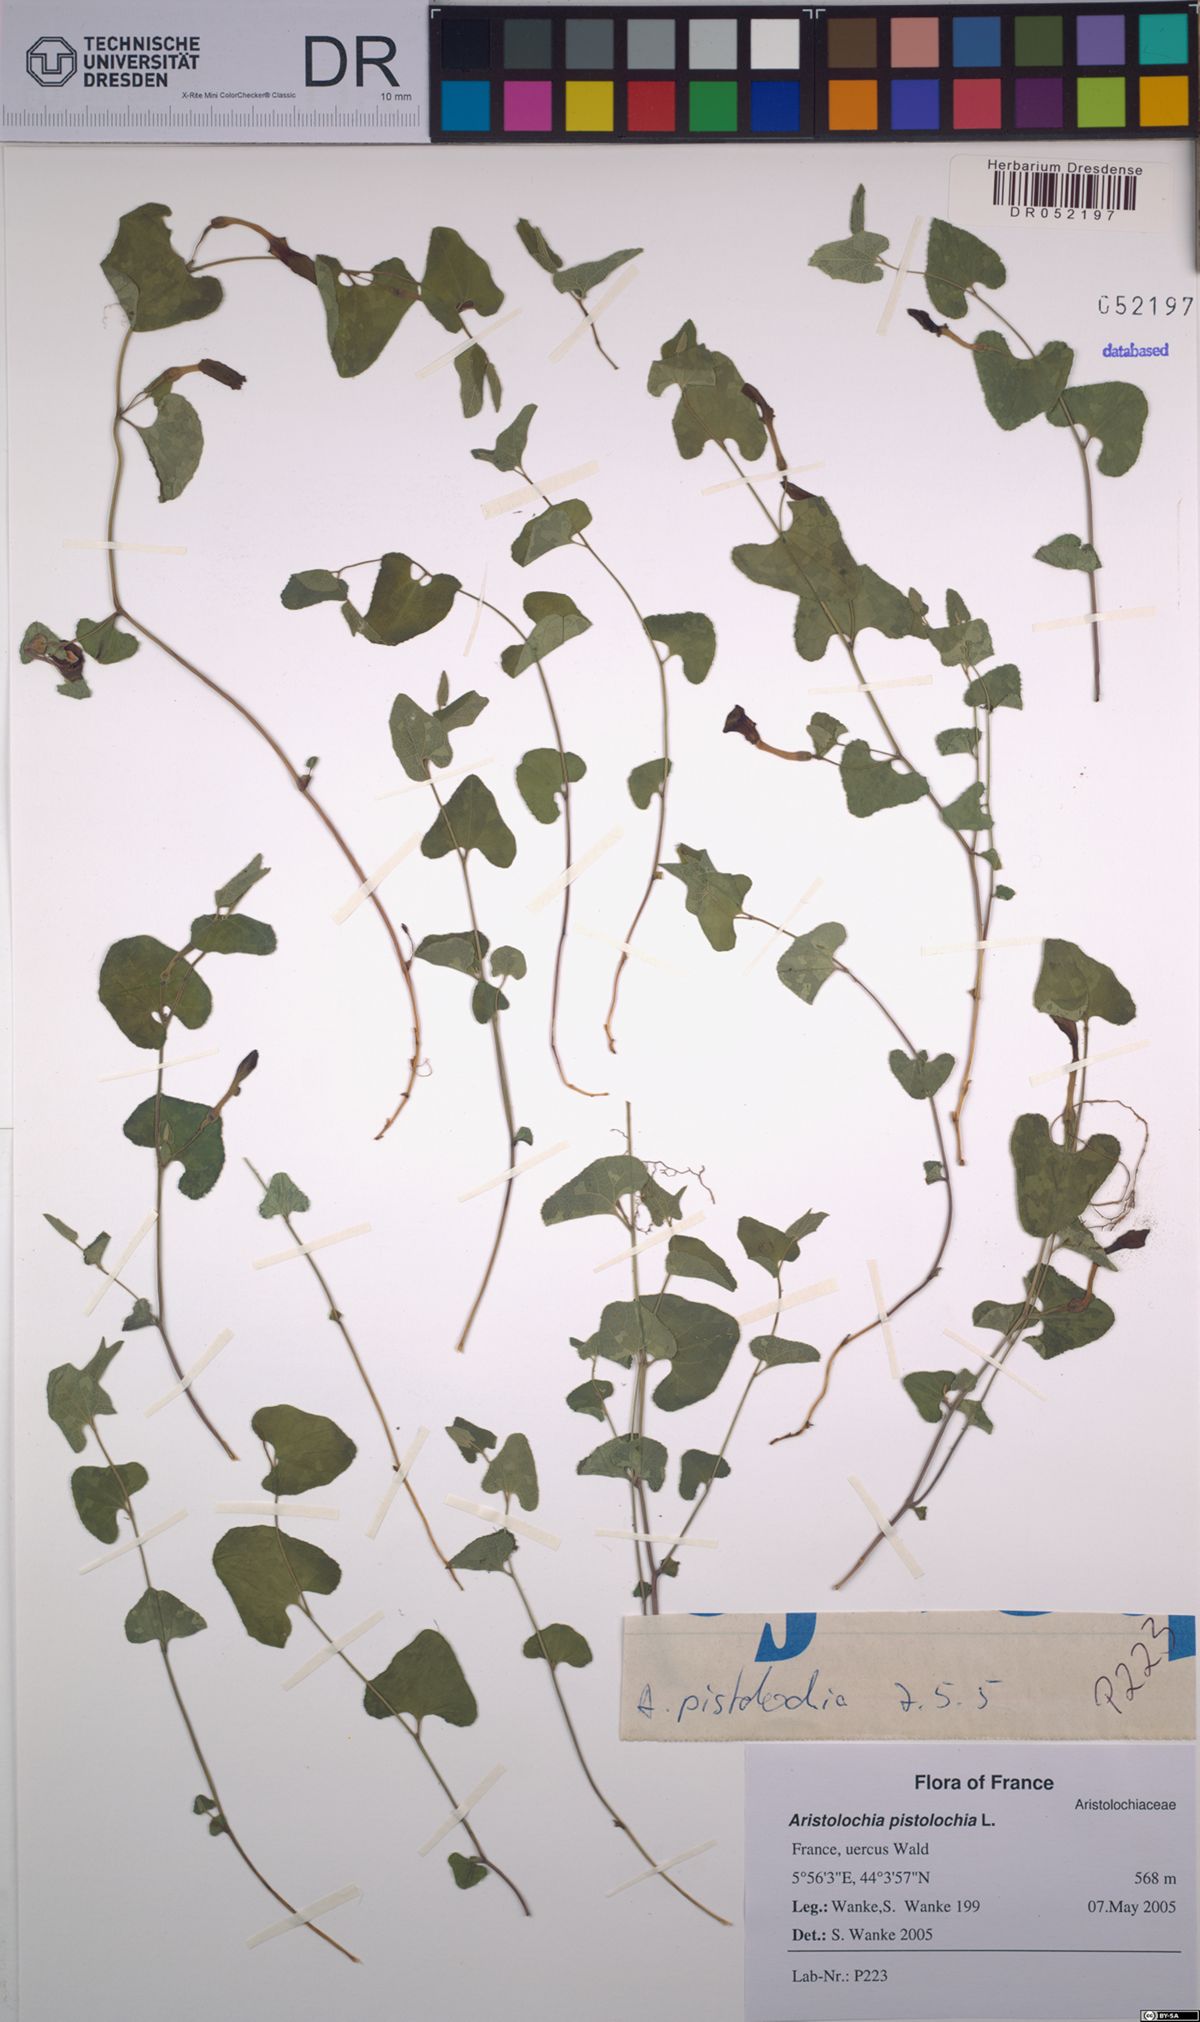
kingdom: Plantae
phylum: Tracheophyta
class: Magnoliopsida
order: Piperales
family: Aristolochiaceae
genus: Aristolochia
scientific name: Aristolochia pistolochia
